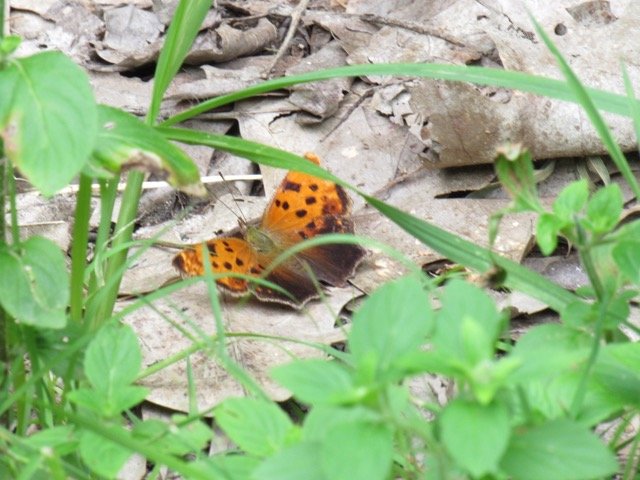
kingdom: Animalia
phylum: Arthropoda
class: Insecta
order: Lepidoptera
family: Nymphalidae
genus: Polygonia
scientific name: Polygonia comma
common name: Eastern Comma
